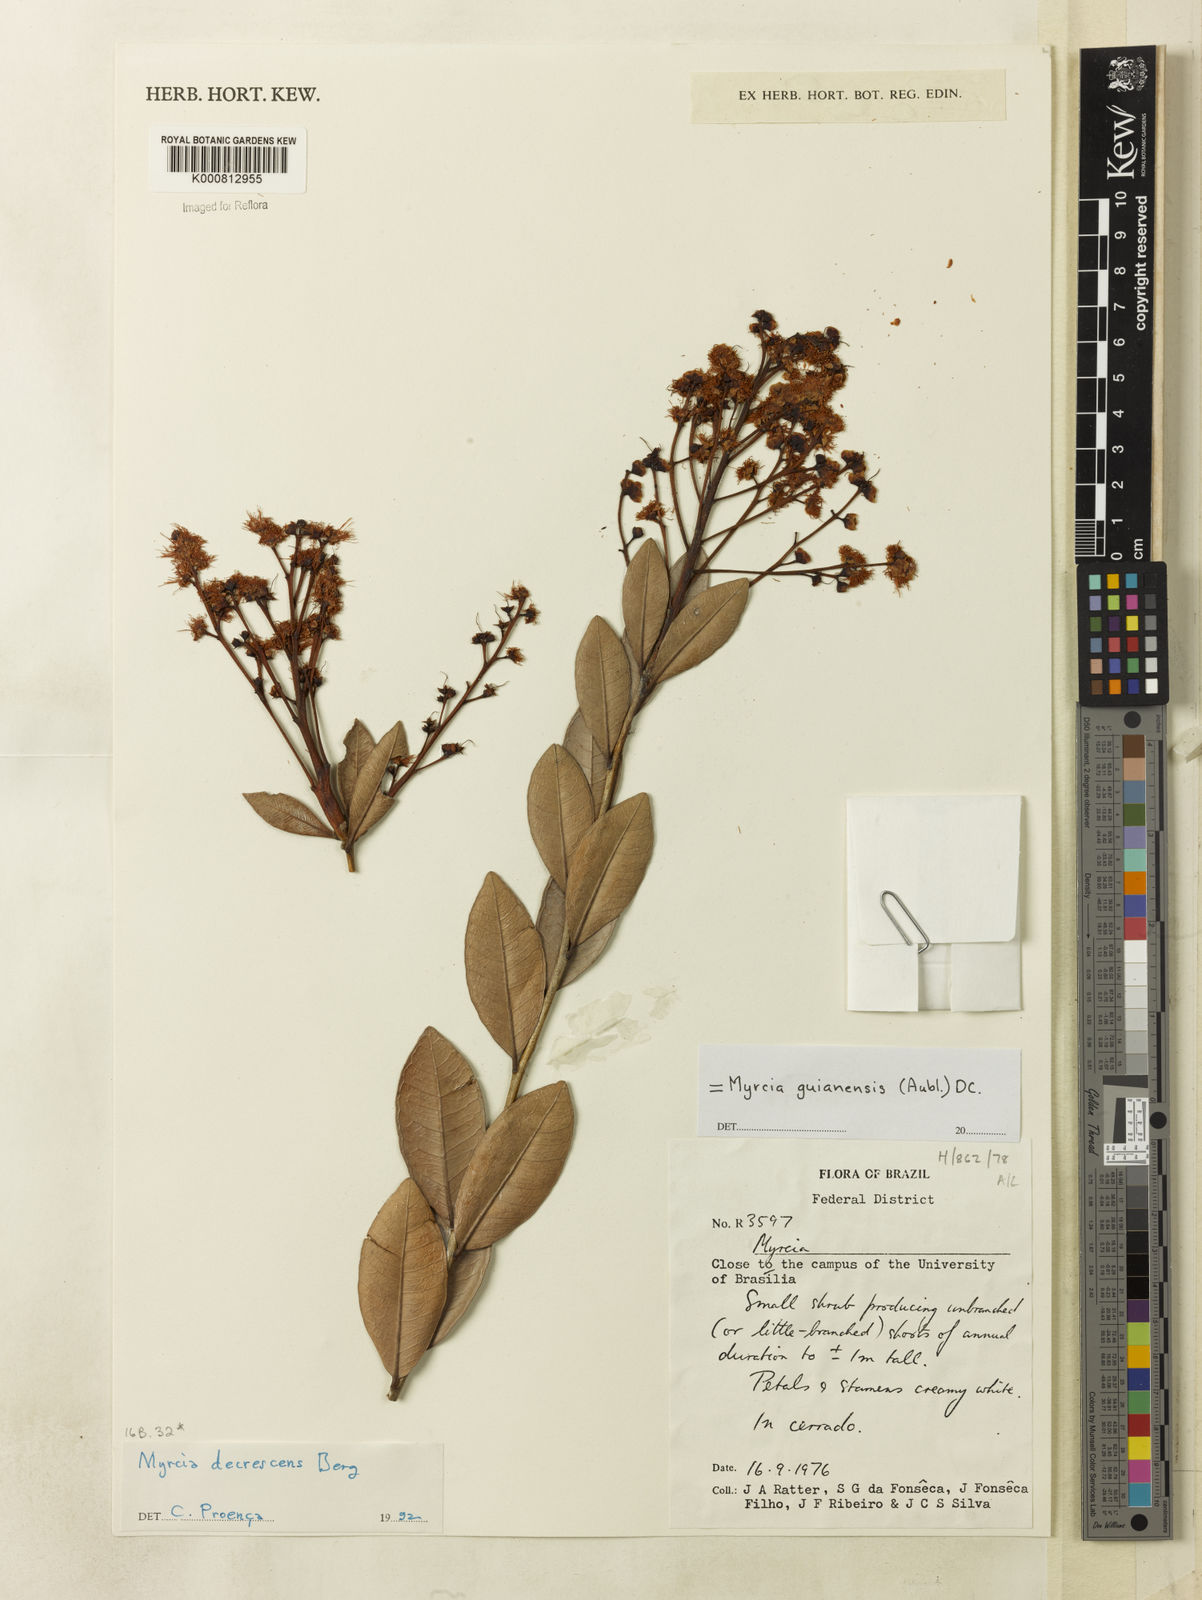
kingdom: Plantae
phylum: Tracheophyta
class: Magnoliopsida
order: Myrtales
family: Myrtaceae
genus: Myrcia
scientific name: Myrcia guianensis
